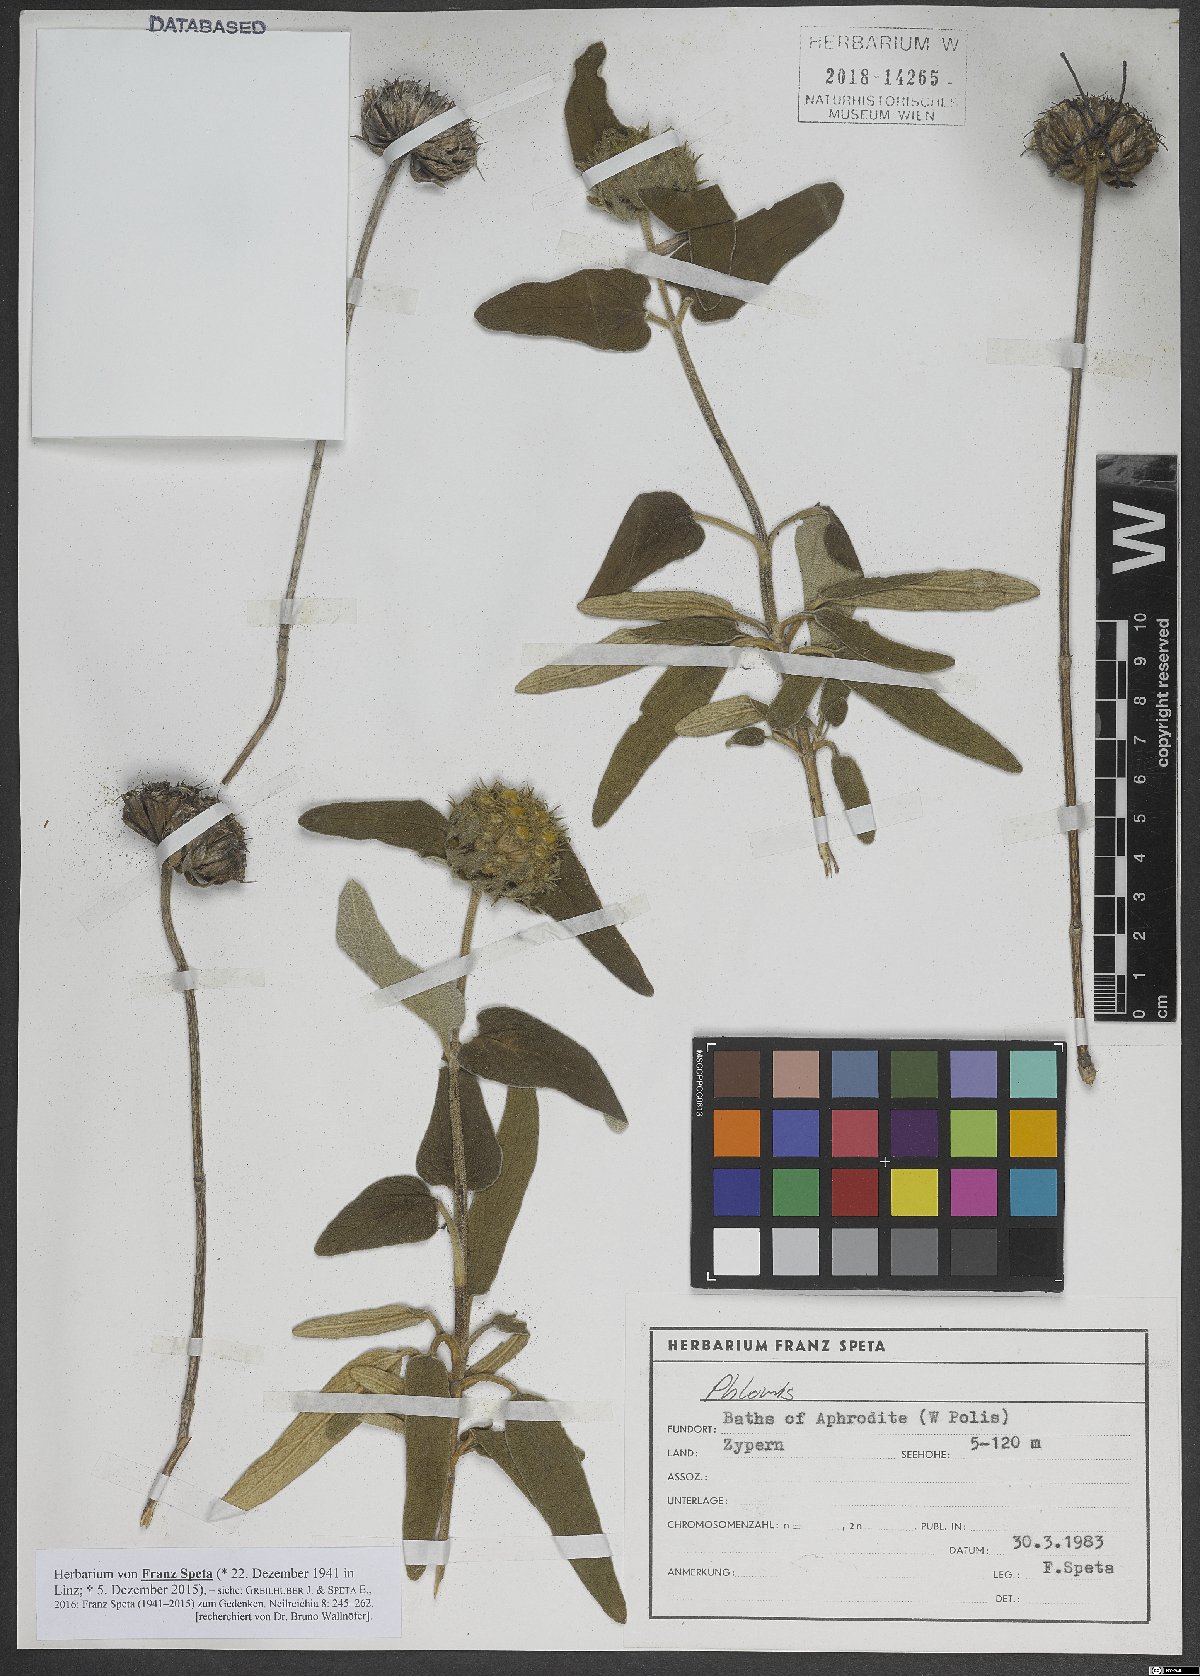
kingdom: Plantae
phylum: Tracheophyta
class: Magnoliopsida
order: Lamiales
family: Lamiaceae
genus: Phlomis
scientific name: Phlomis
